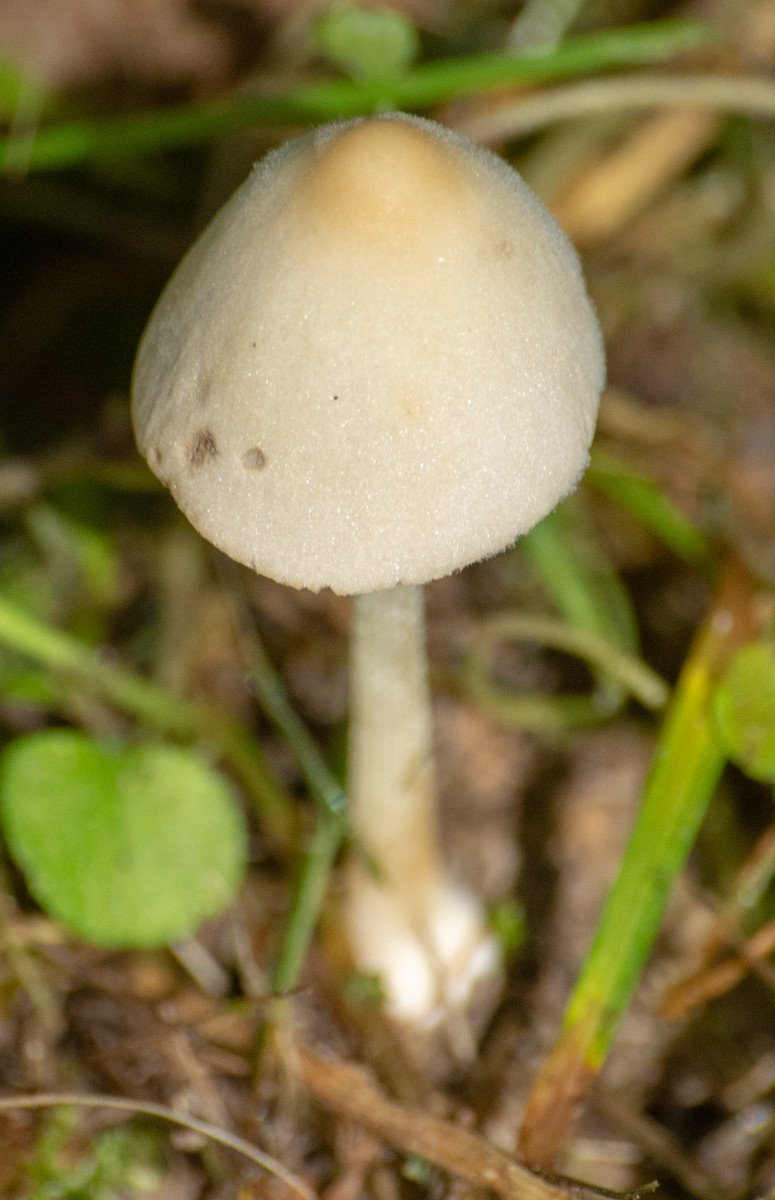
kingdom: Fungi
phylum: Basidiomycota
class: Agaricomycetes
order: Agaricales
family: Bolbitiaceae
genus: Conocybe
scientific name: Conocybe
